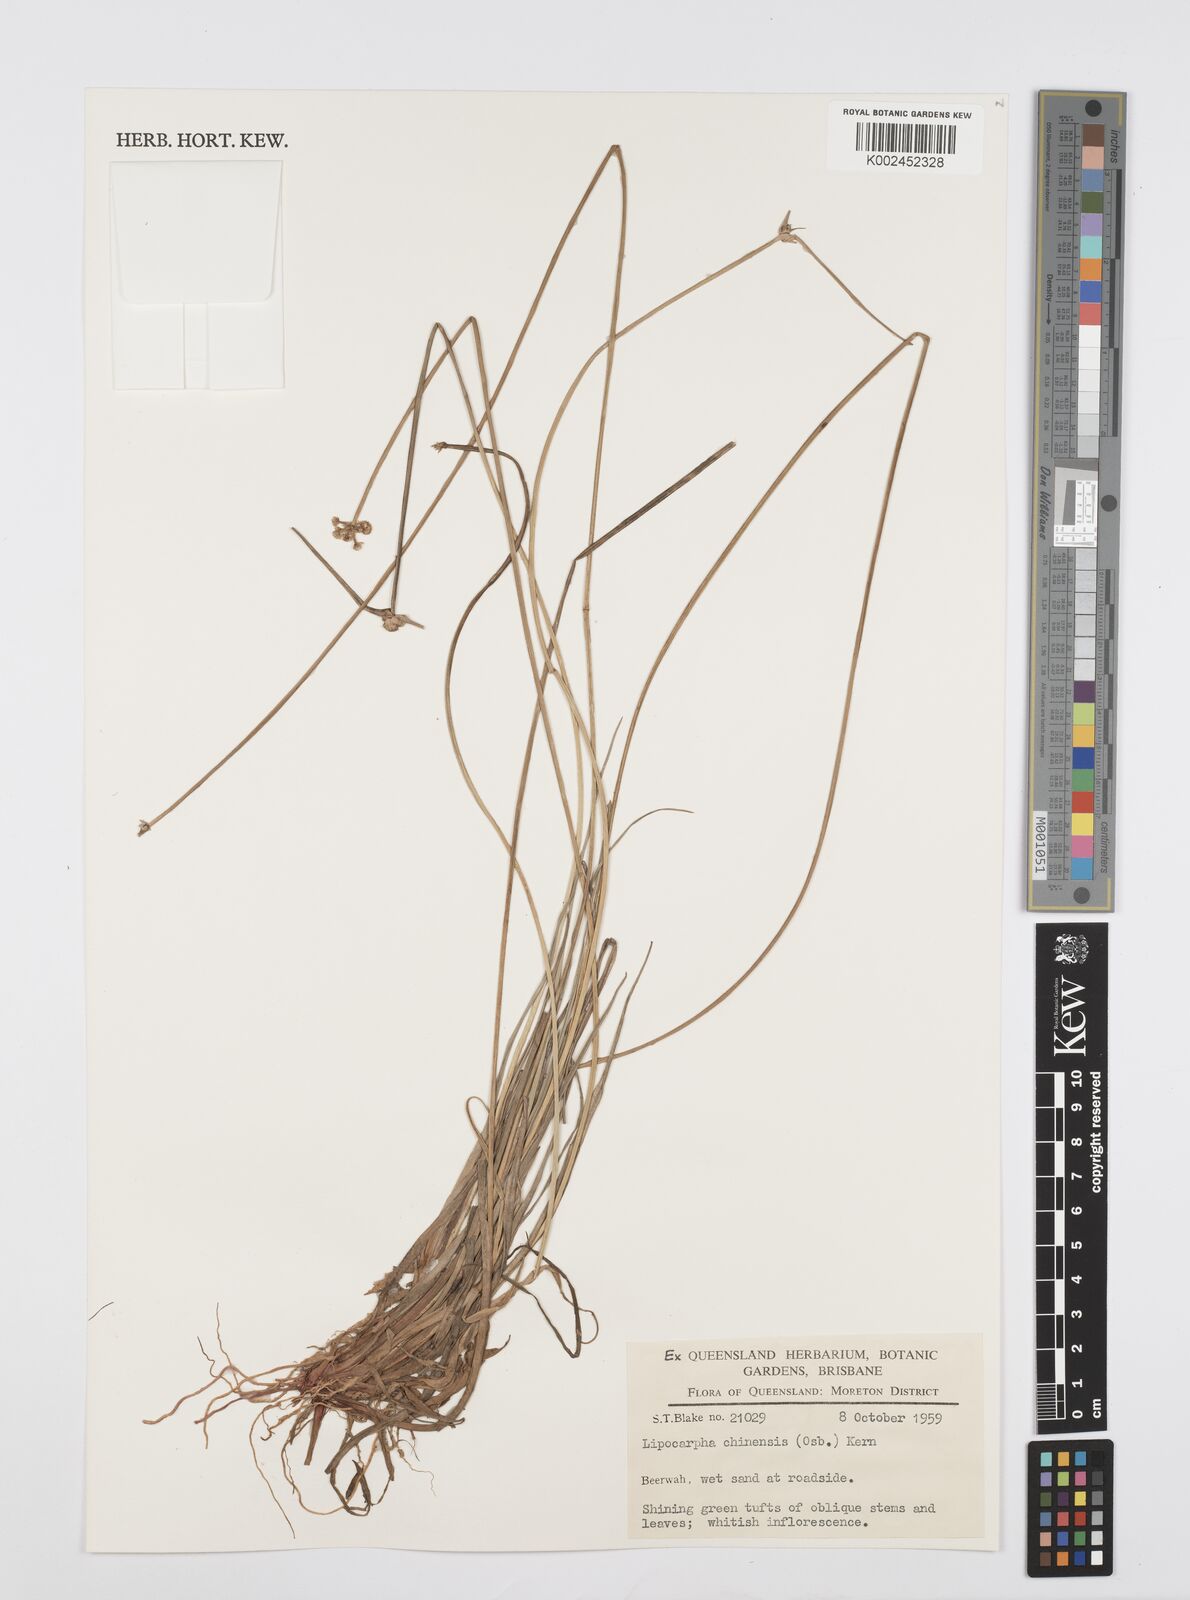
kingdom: Plantae
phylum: Tracheophyta
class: Liliopsida
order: Poales
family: Cyperaceae
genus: Cyperus
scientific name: Cyperus
